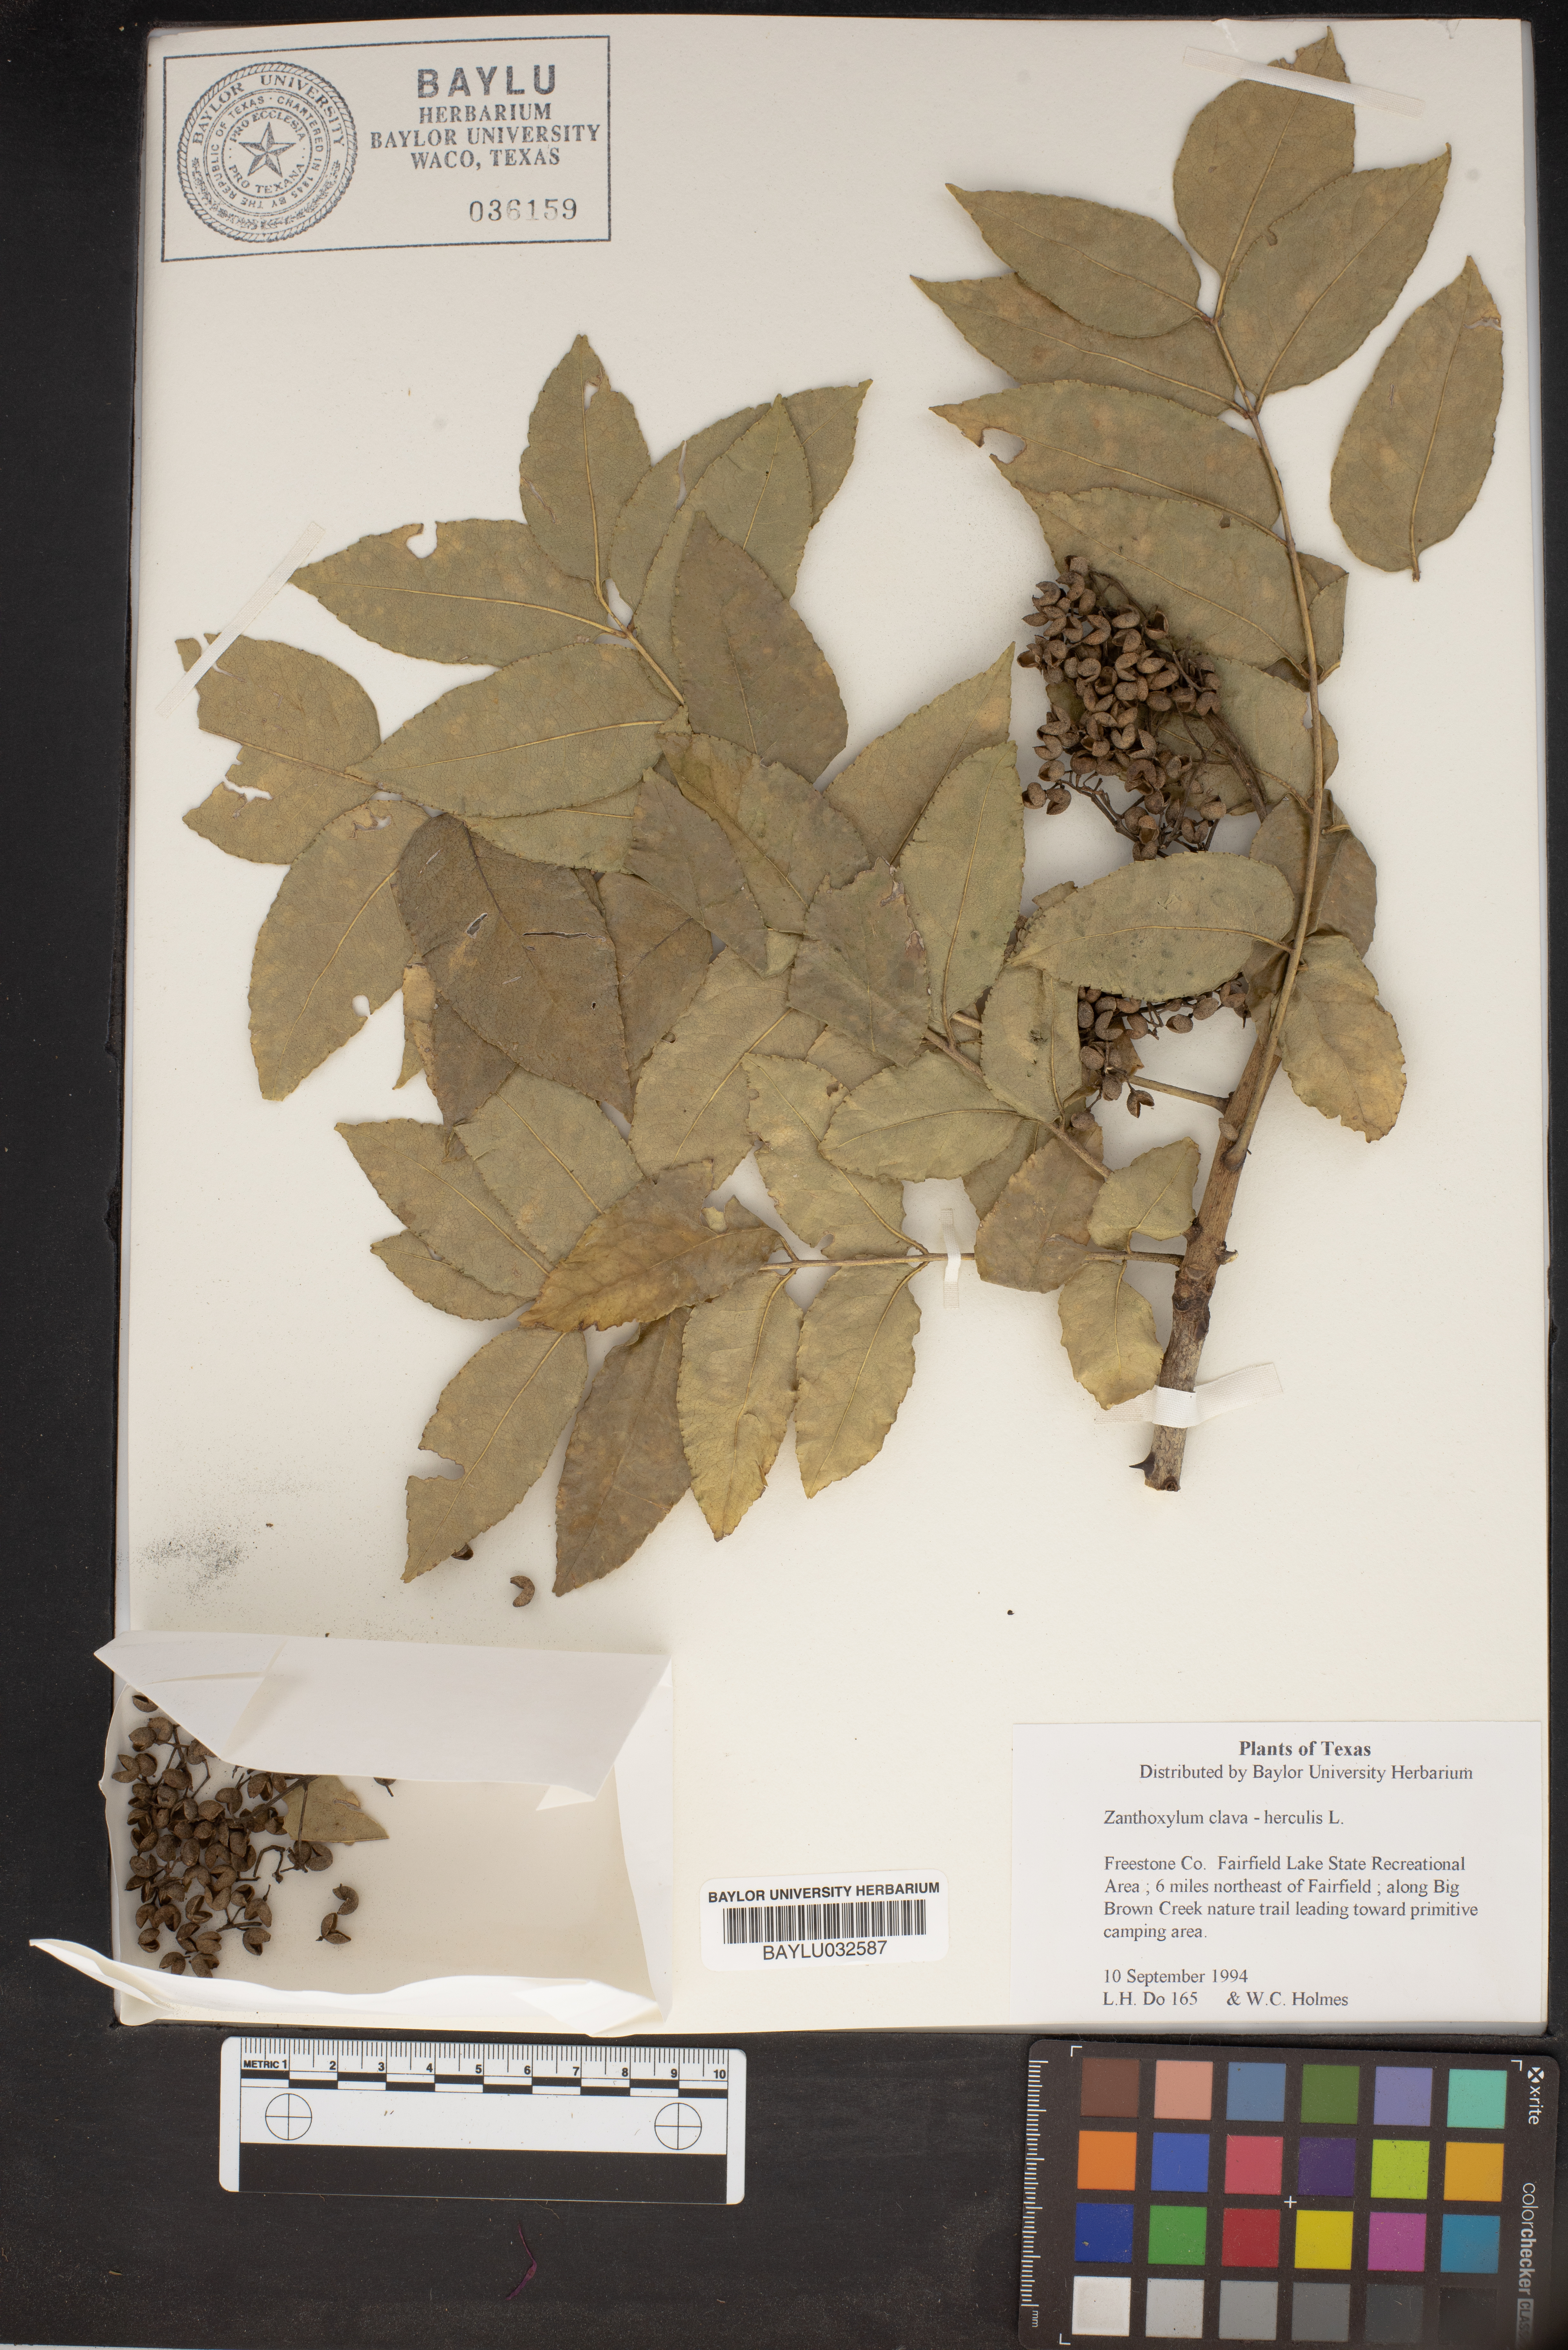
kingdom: Plantae
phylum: Tracheophyta
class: Magnoliopsida
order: Sapindales
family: Rutaceae
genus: Zanthoxylum
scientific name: Zanthoxylum avicennae
